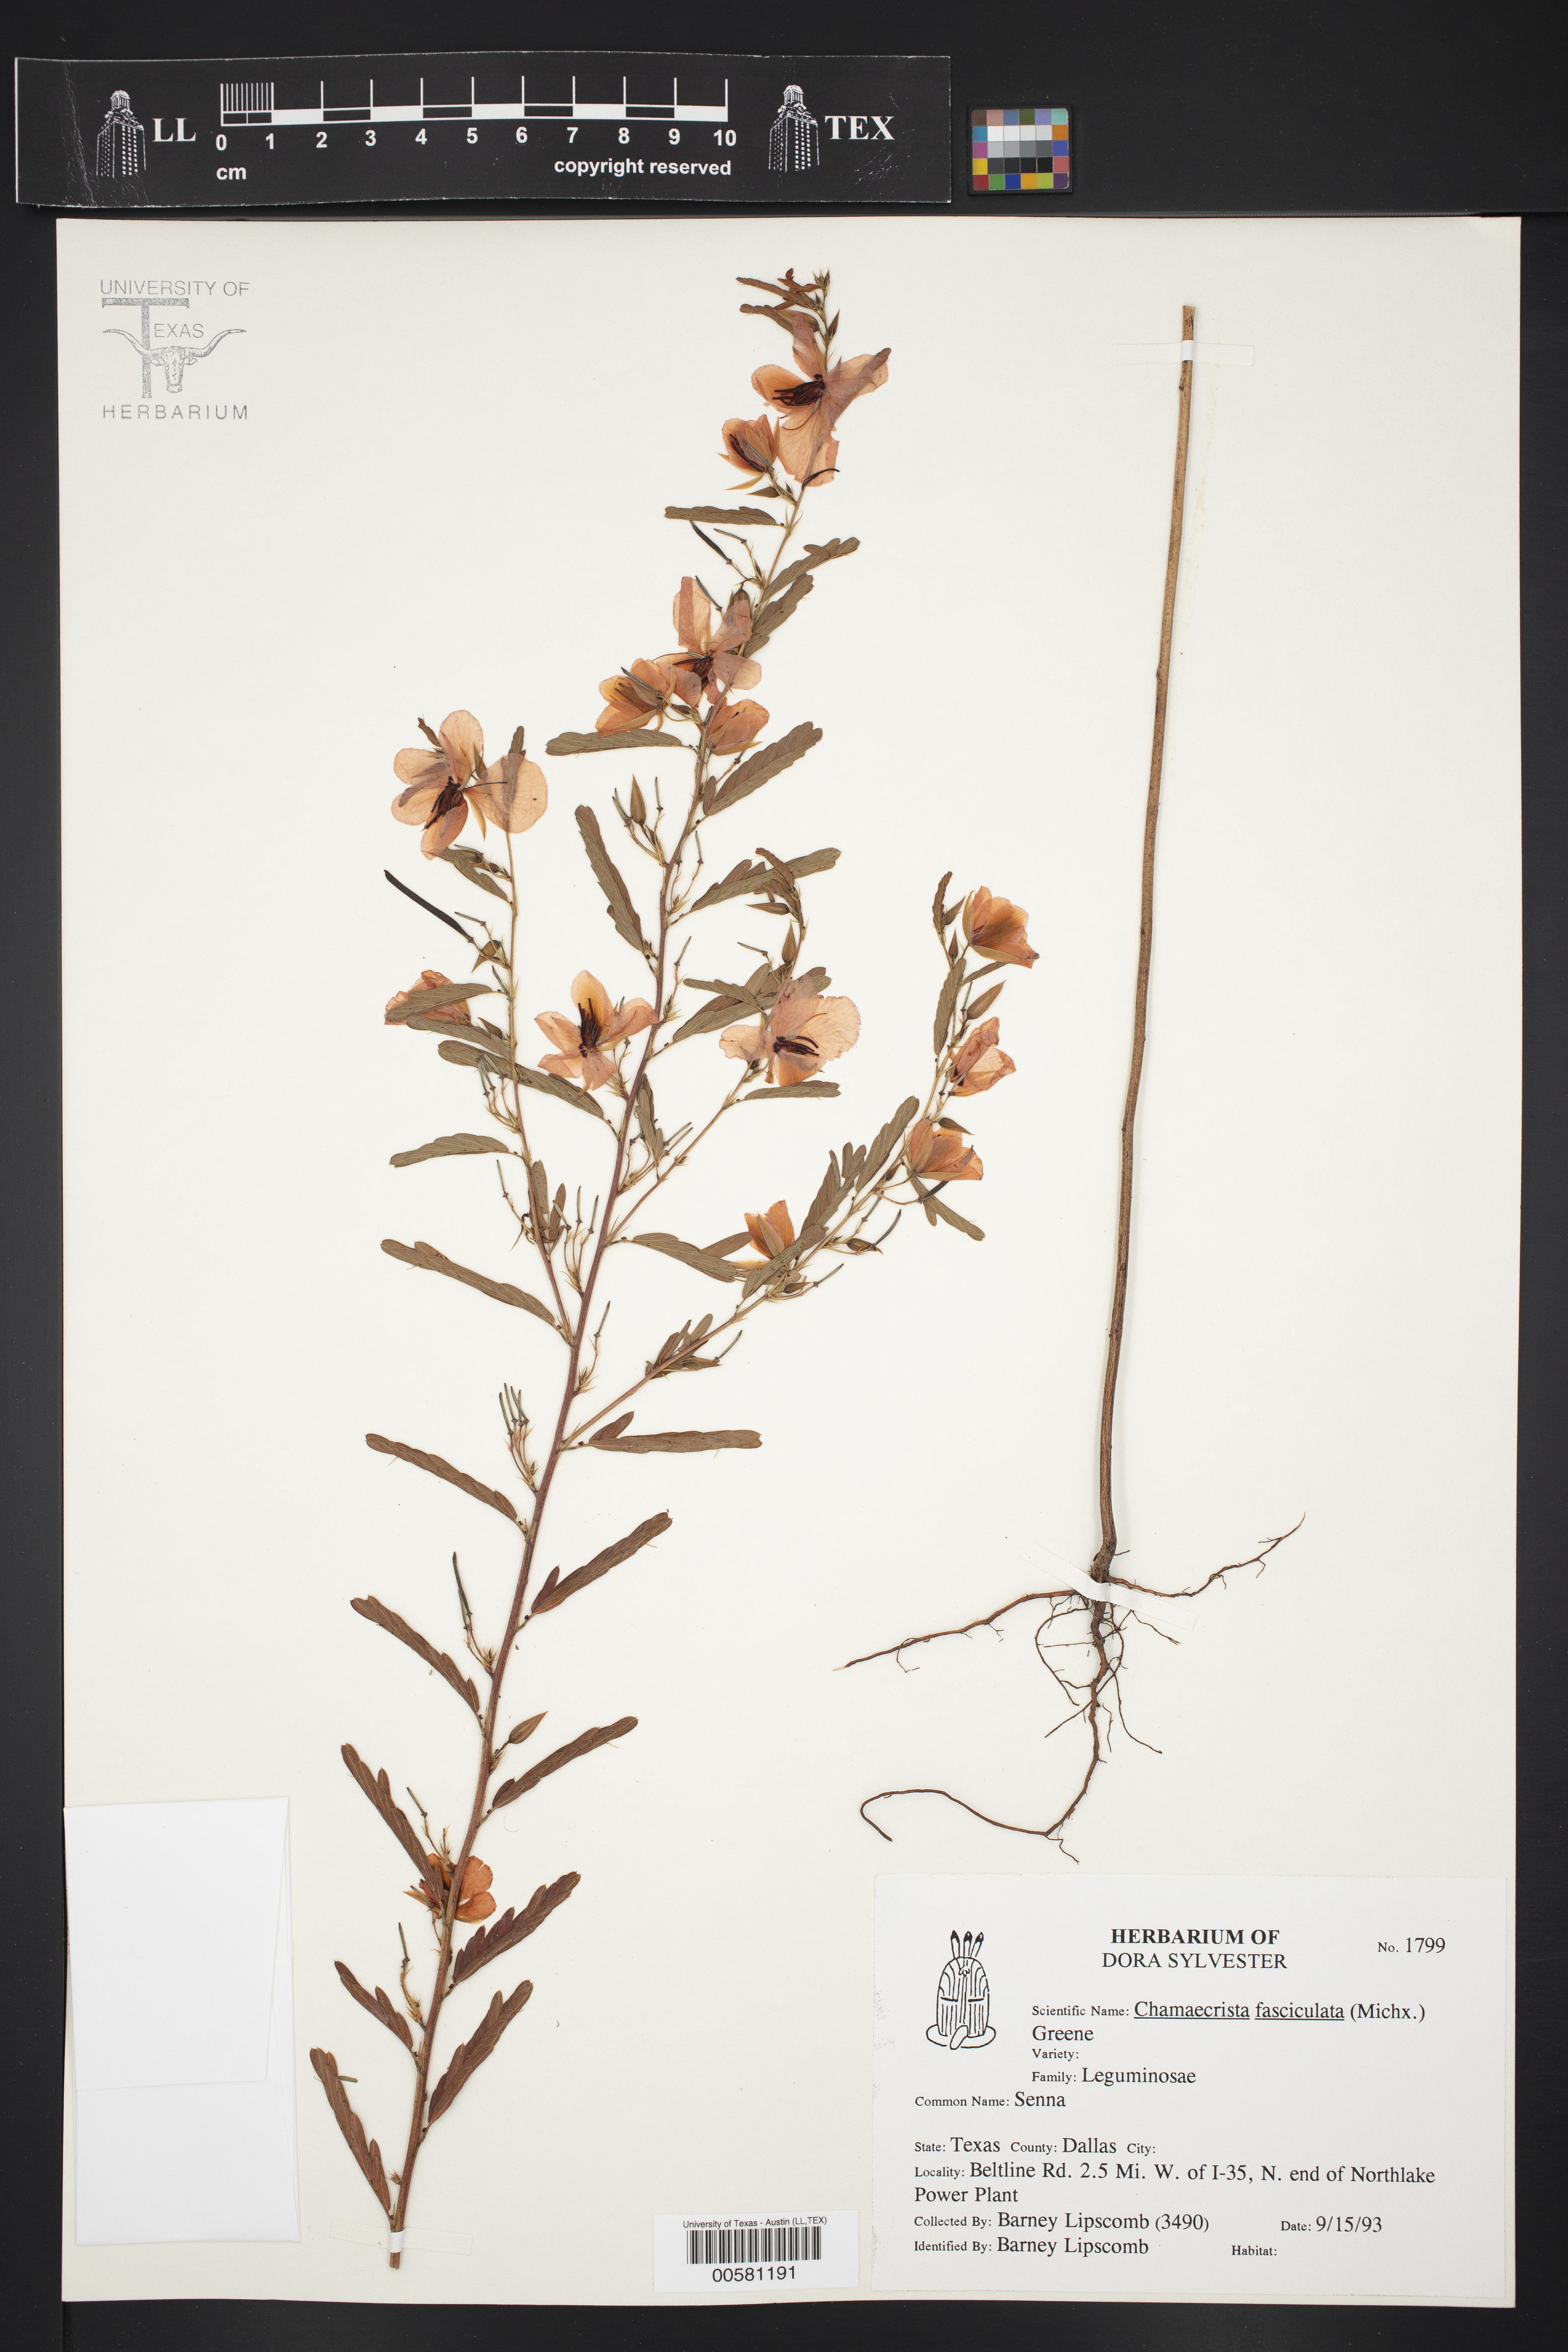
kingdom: Plantae
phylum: Tracheophyta
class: Magnoliopsida
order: Fabales
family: Fabaceae
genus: Chamaecrista
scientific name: Chamaecrista fasciculata
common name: Golden cassia
